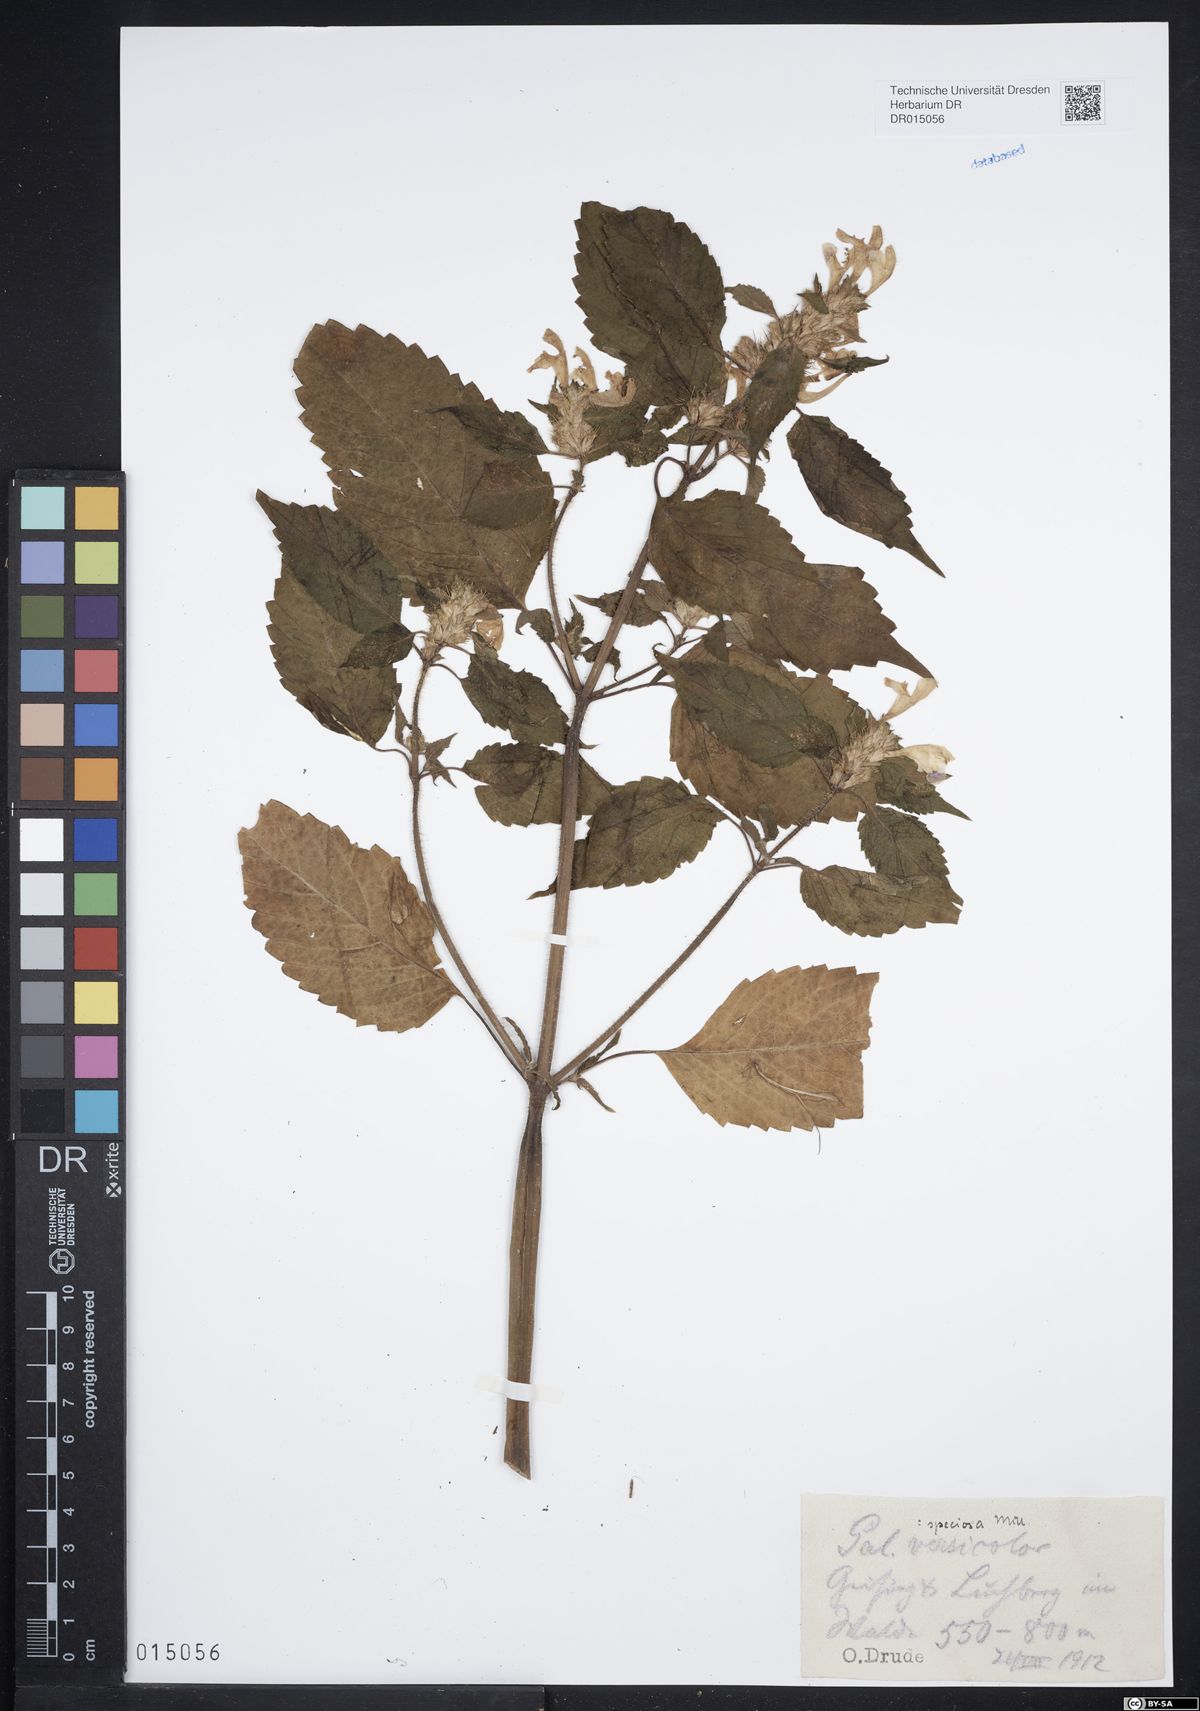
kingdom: Plantae
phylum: Tracheophyta
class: Magnoliopsida
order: Lamiales
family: Lamiaceae
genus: Galeopsis
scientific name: Galeopsis speciosa
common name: Large-flowered hemp-nettle
